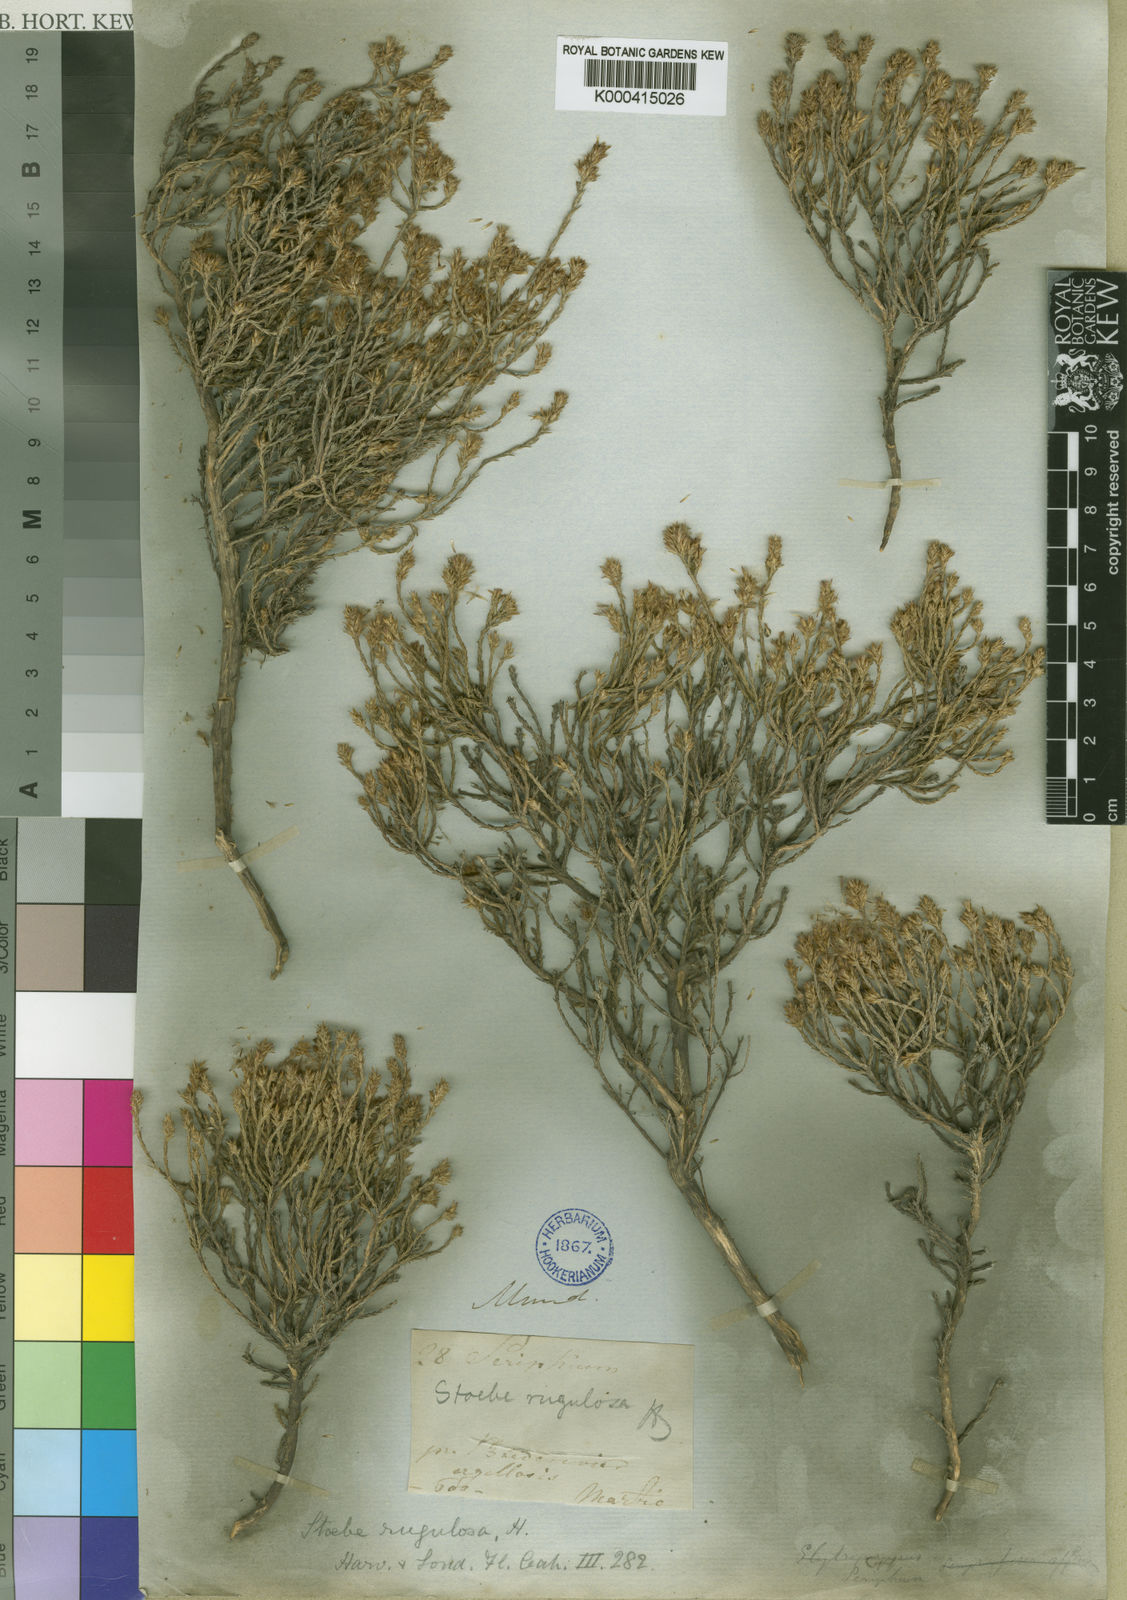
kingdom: Plantae
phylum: Tracheophyta
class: Magnoliopsida
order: Asterales
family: Asteraceae
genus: Stoebe
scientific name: Stoebe rugulosa
